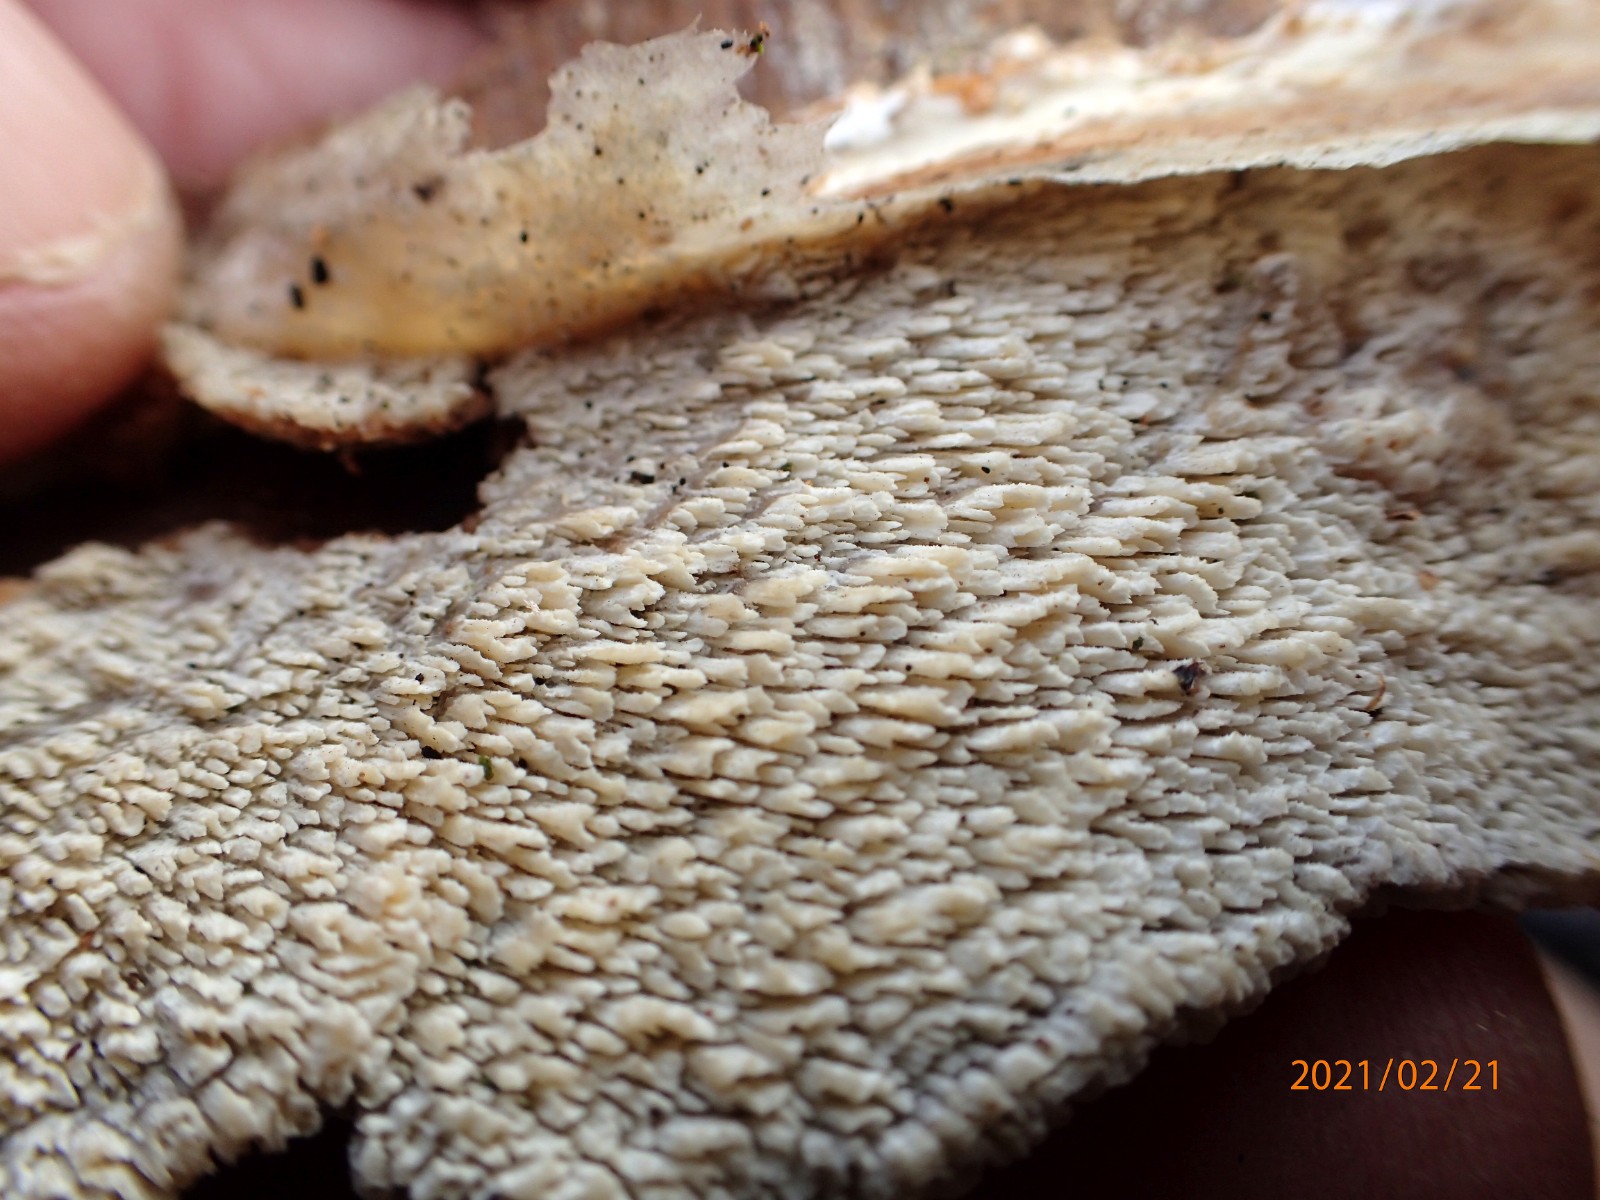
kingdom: Fungi
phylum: Basidiomycota
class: Agaricomycetes
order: Corticiales
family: Corticiaceae
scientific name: Corticiaceae
